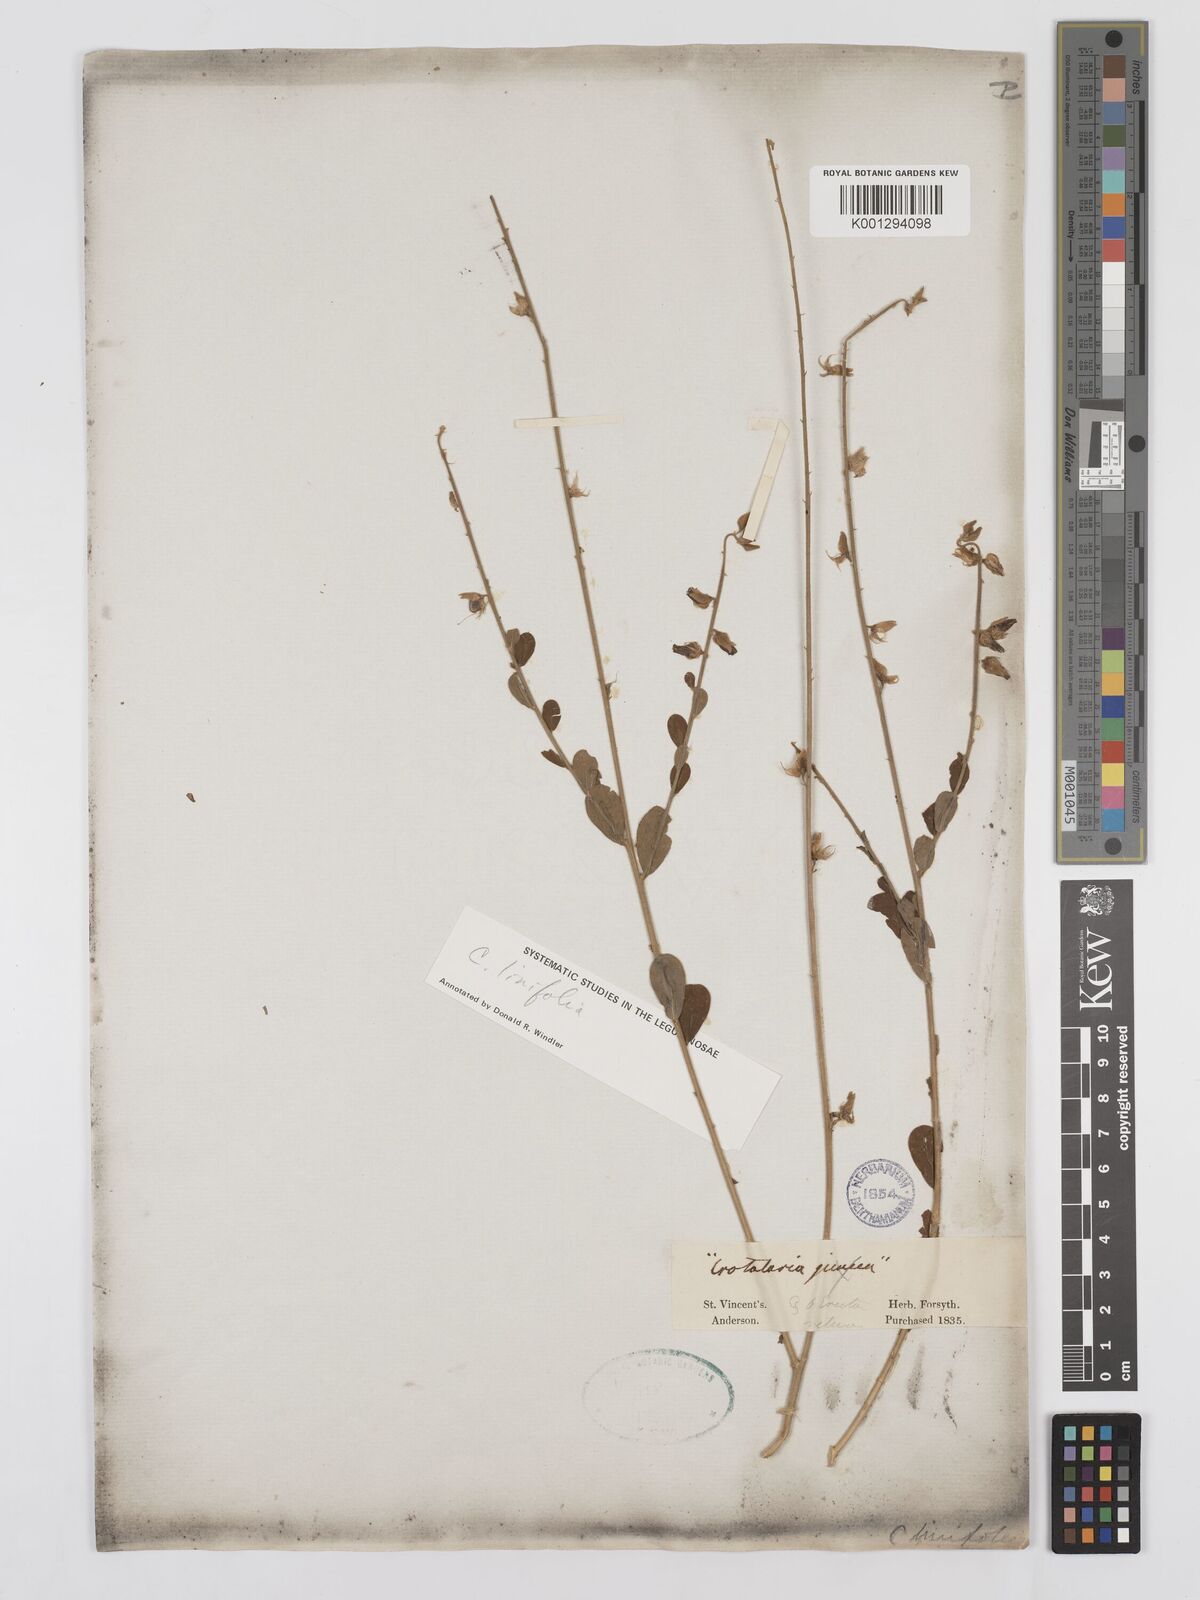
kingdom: Plantae
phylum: Tracheophyta
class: Magnoliopsida
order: Fabales
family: Fabaceae
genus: Crotalaria
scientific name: Crotalaria linifolia
